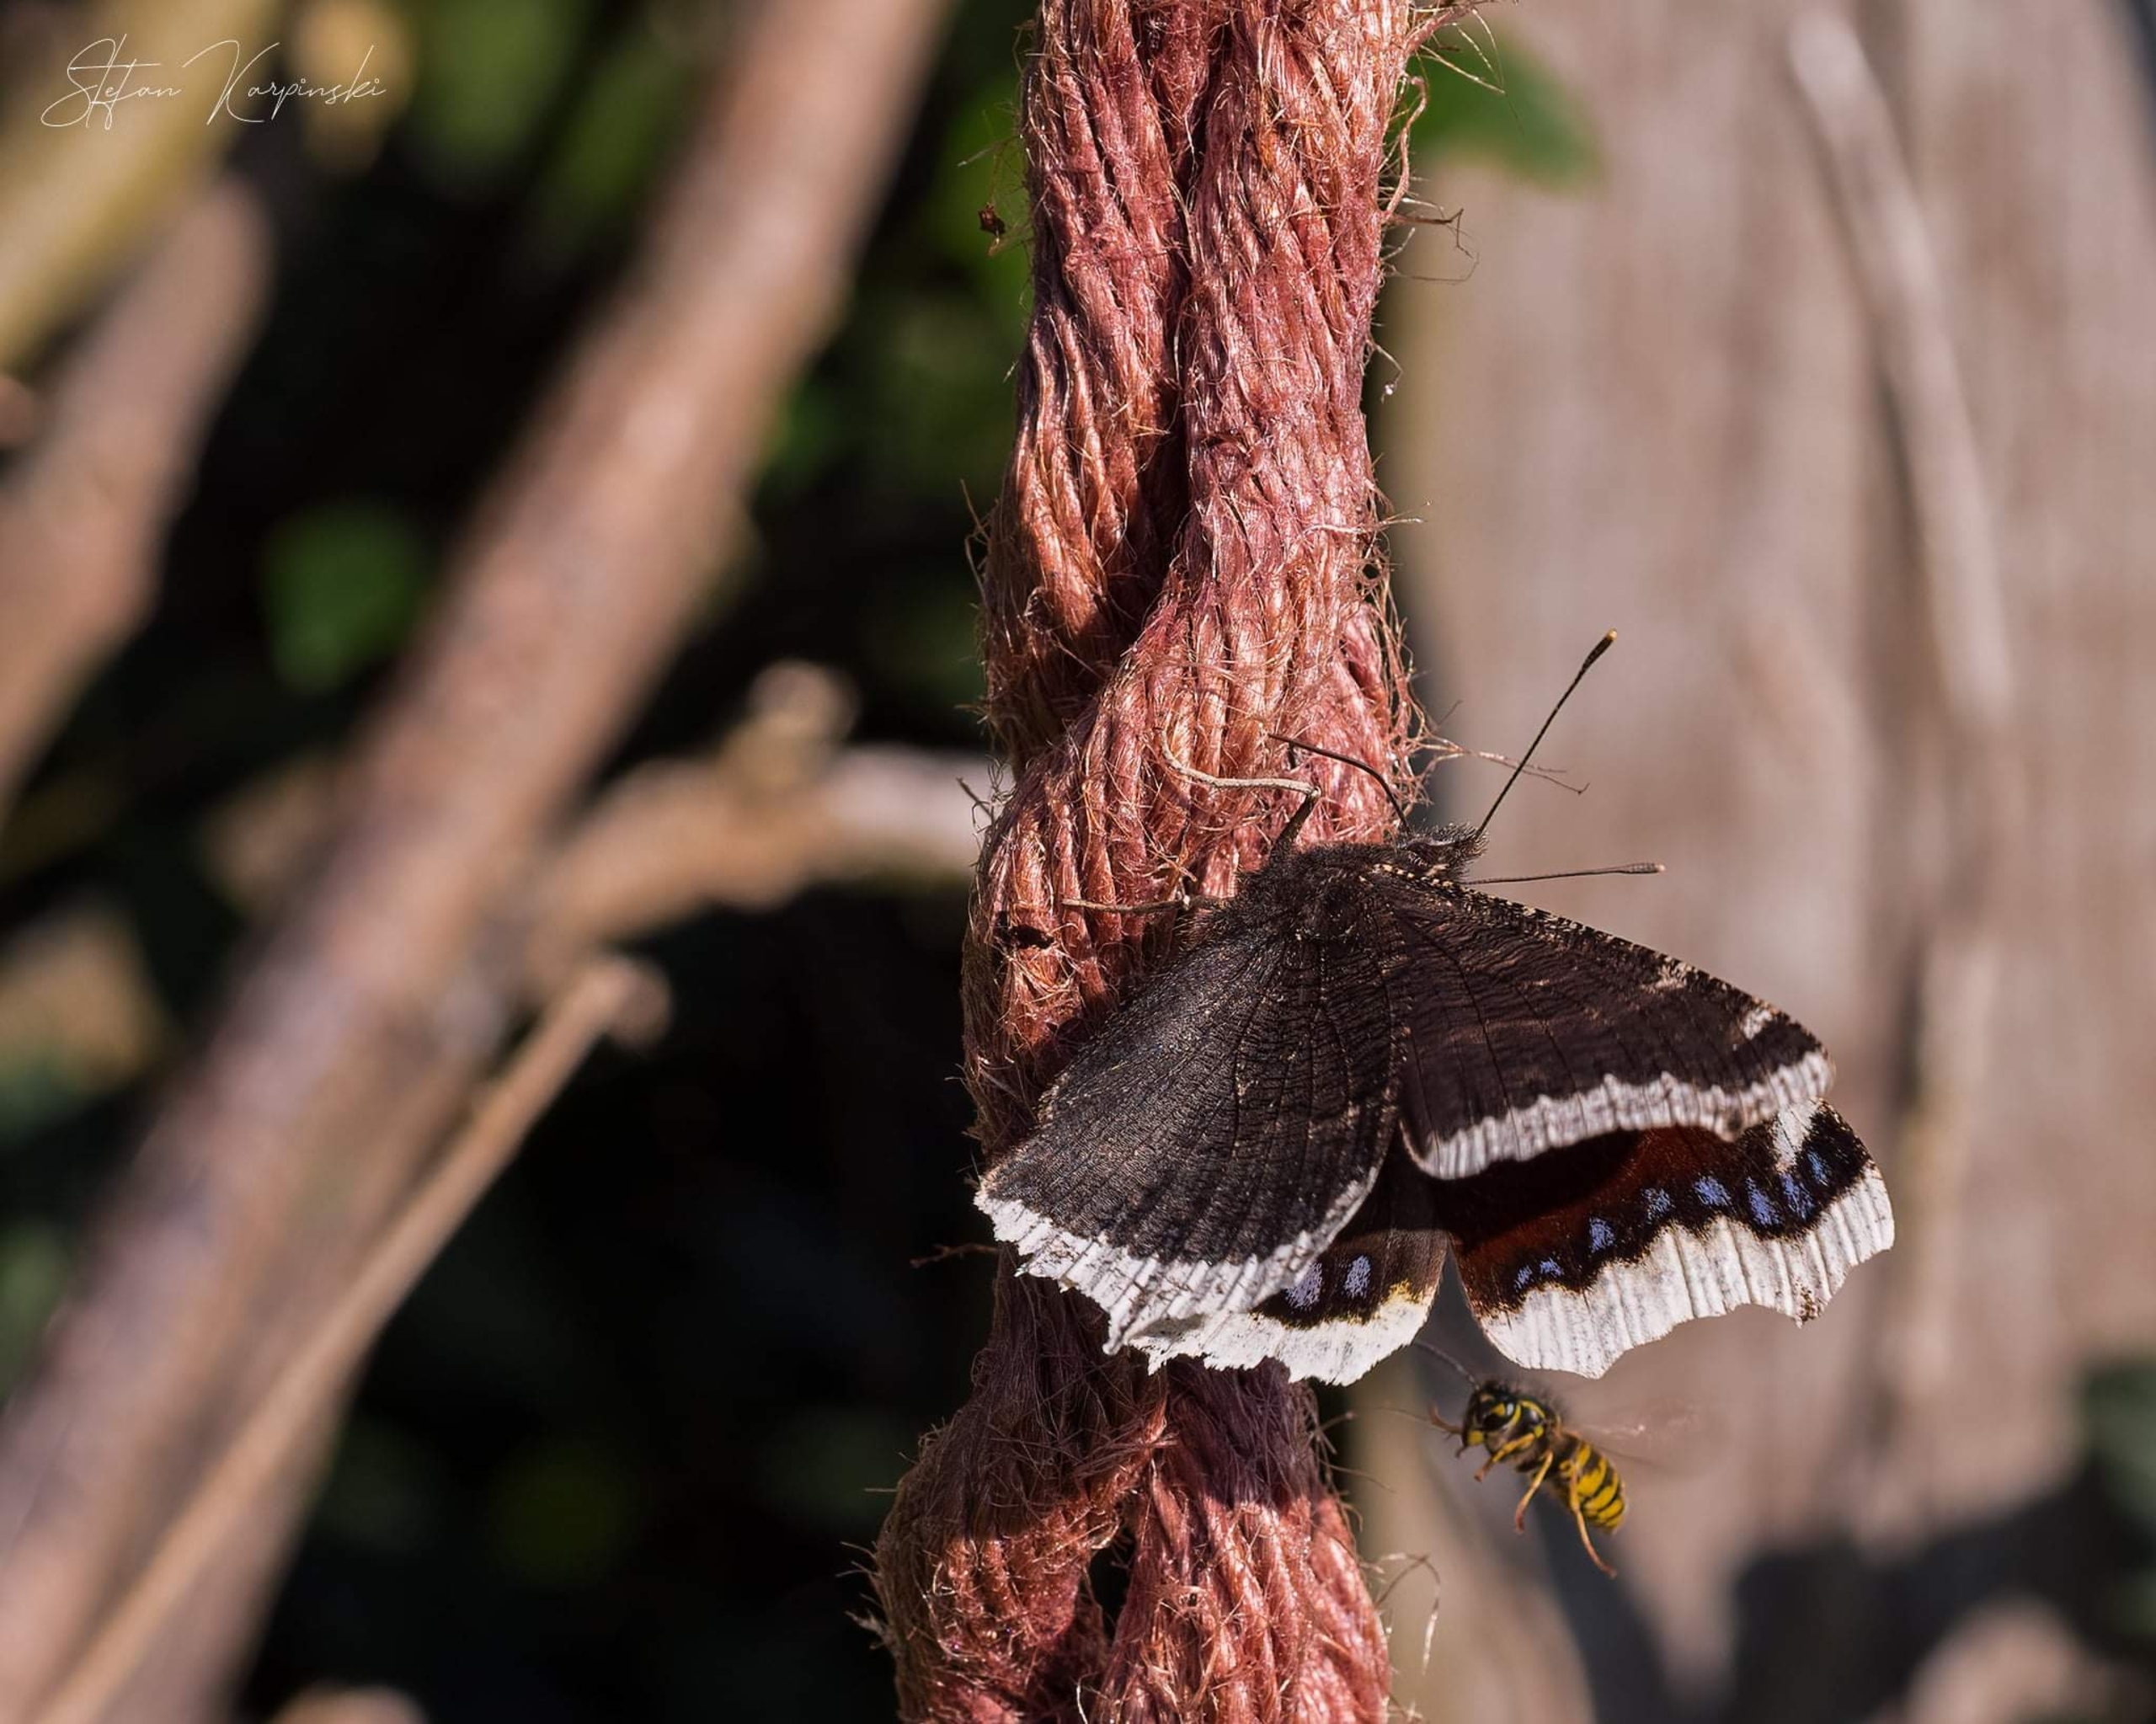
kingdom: Animalia
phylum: Arthropoda
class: Insecta
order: Lepidoptera
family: Nymphalidae
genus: Nymphalis
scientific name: Nymphalis antiopa
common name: Sørgekåbe
